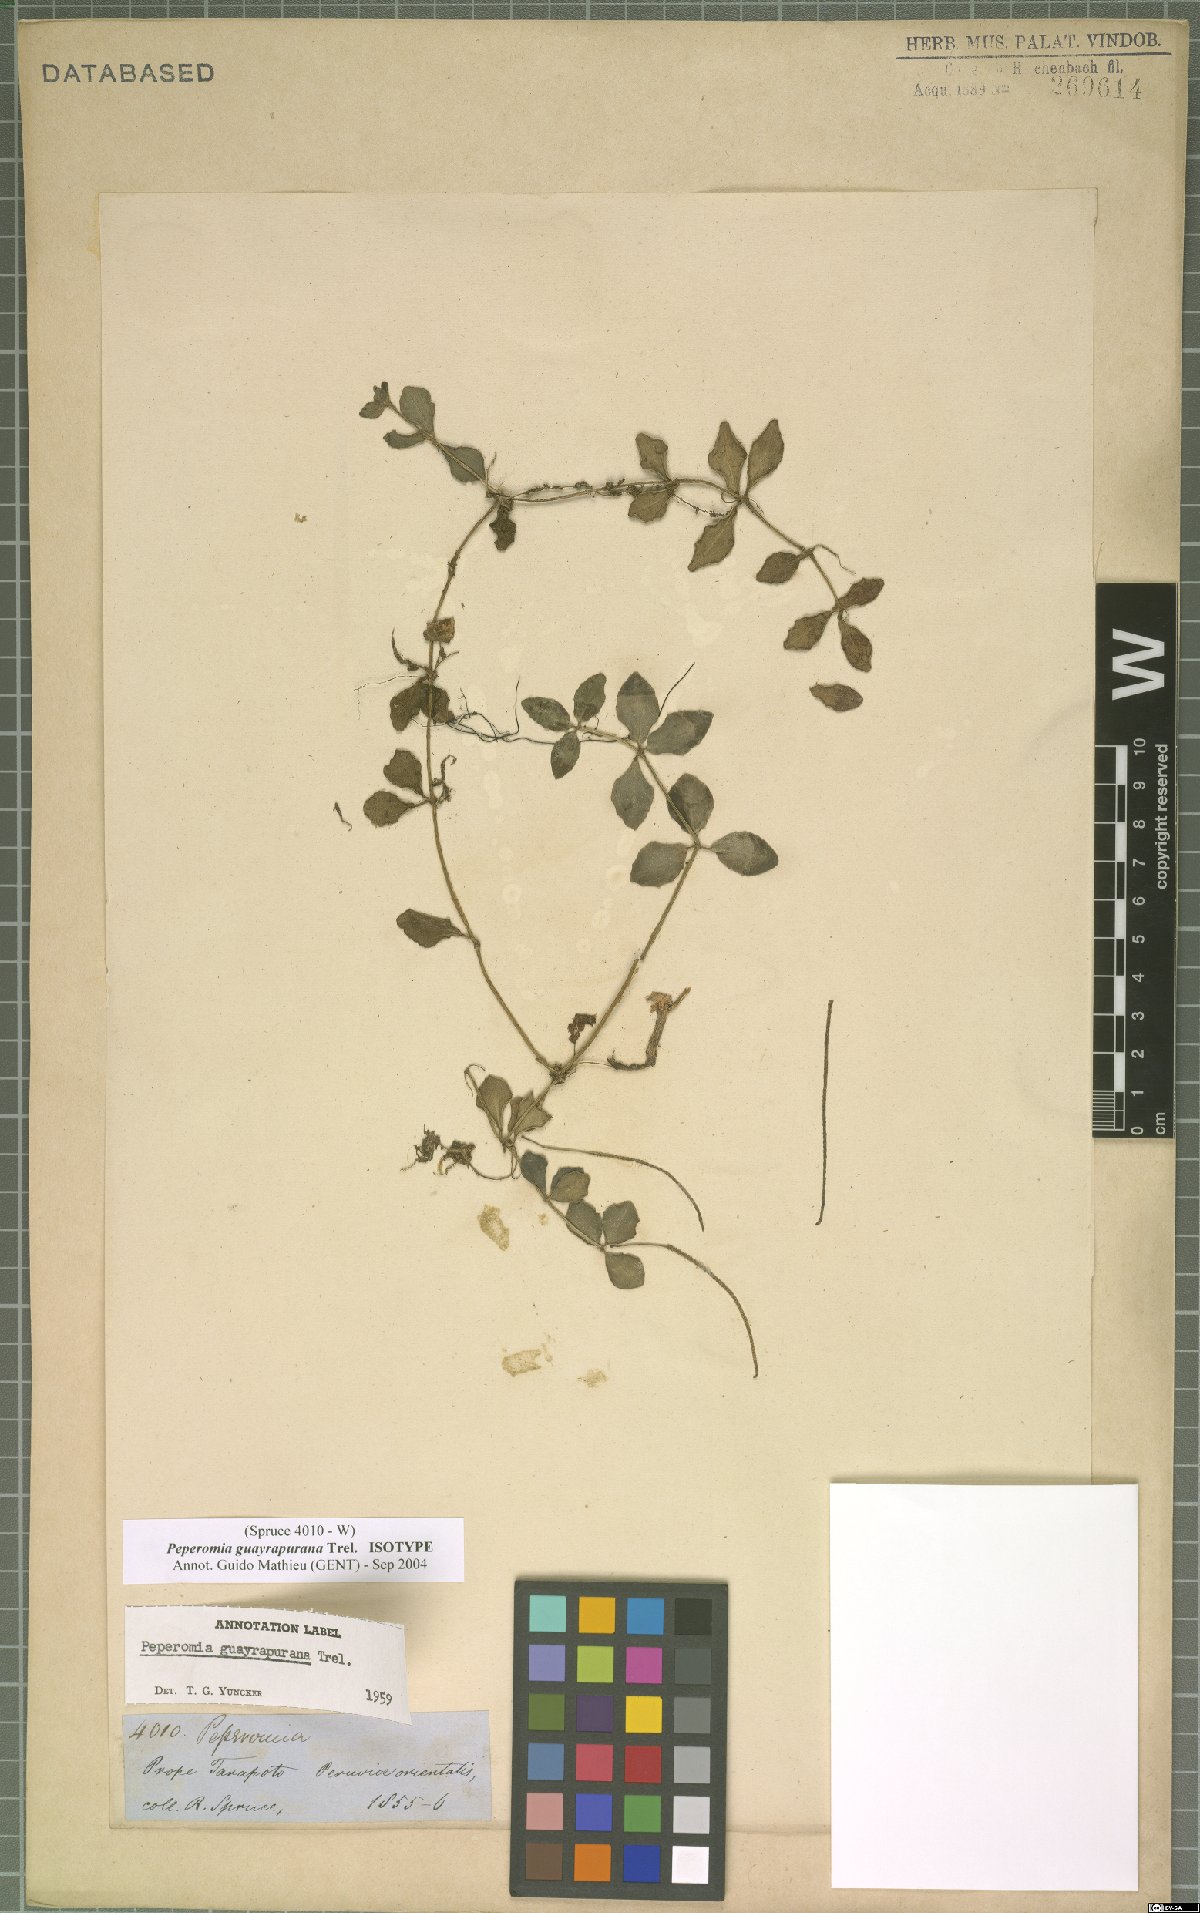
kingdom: Plantae
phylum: Tracheophyta
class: Magnoliopsida
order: Piperales
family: Piperaceae
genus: Peperomia
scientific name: Peperomia guayrapurana
